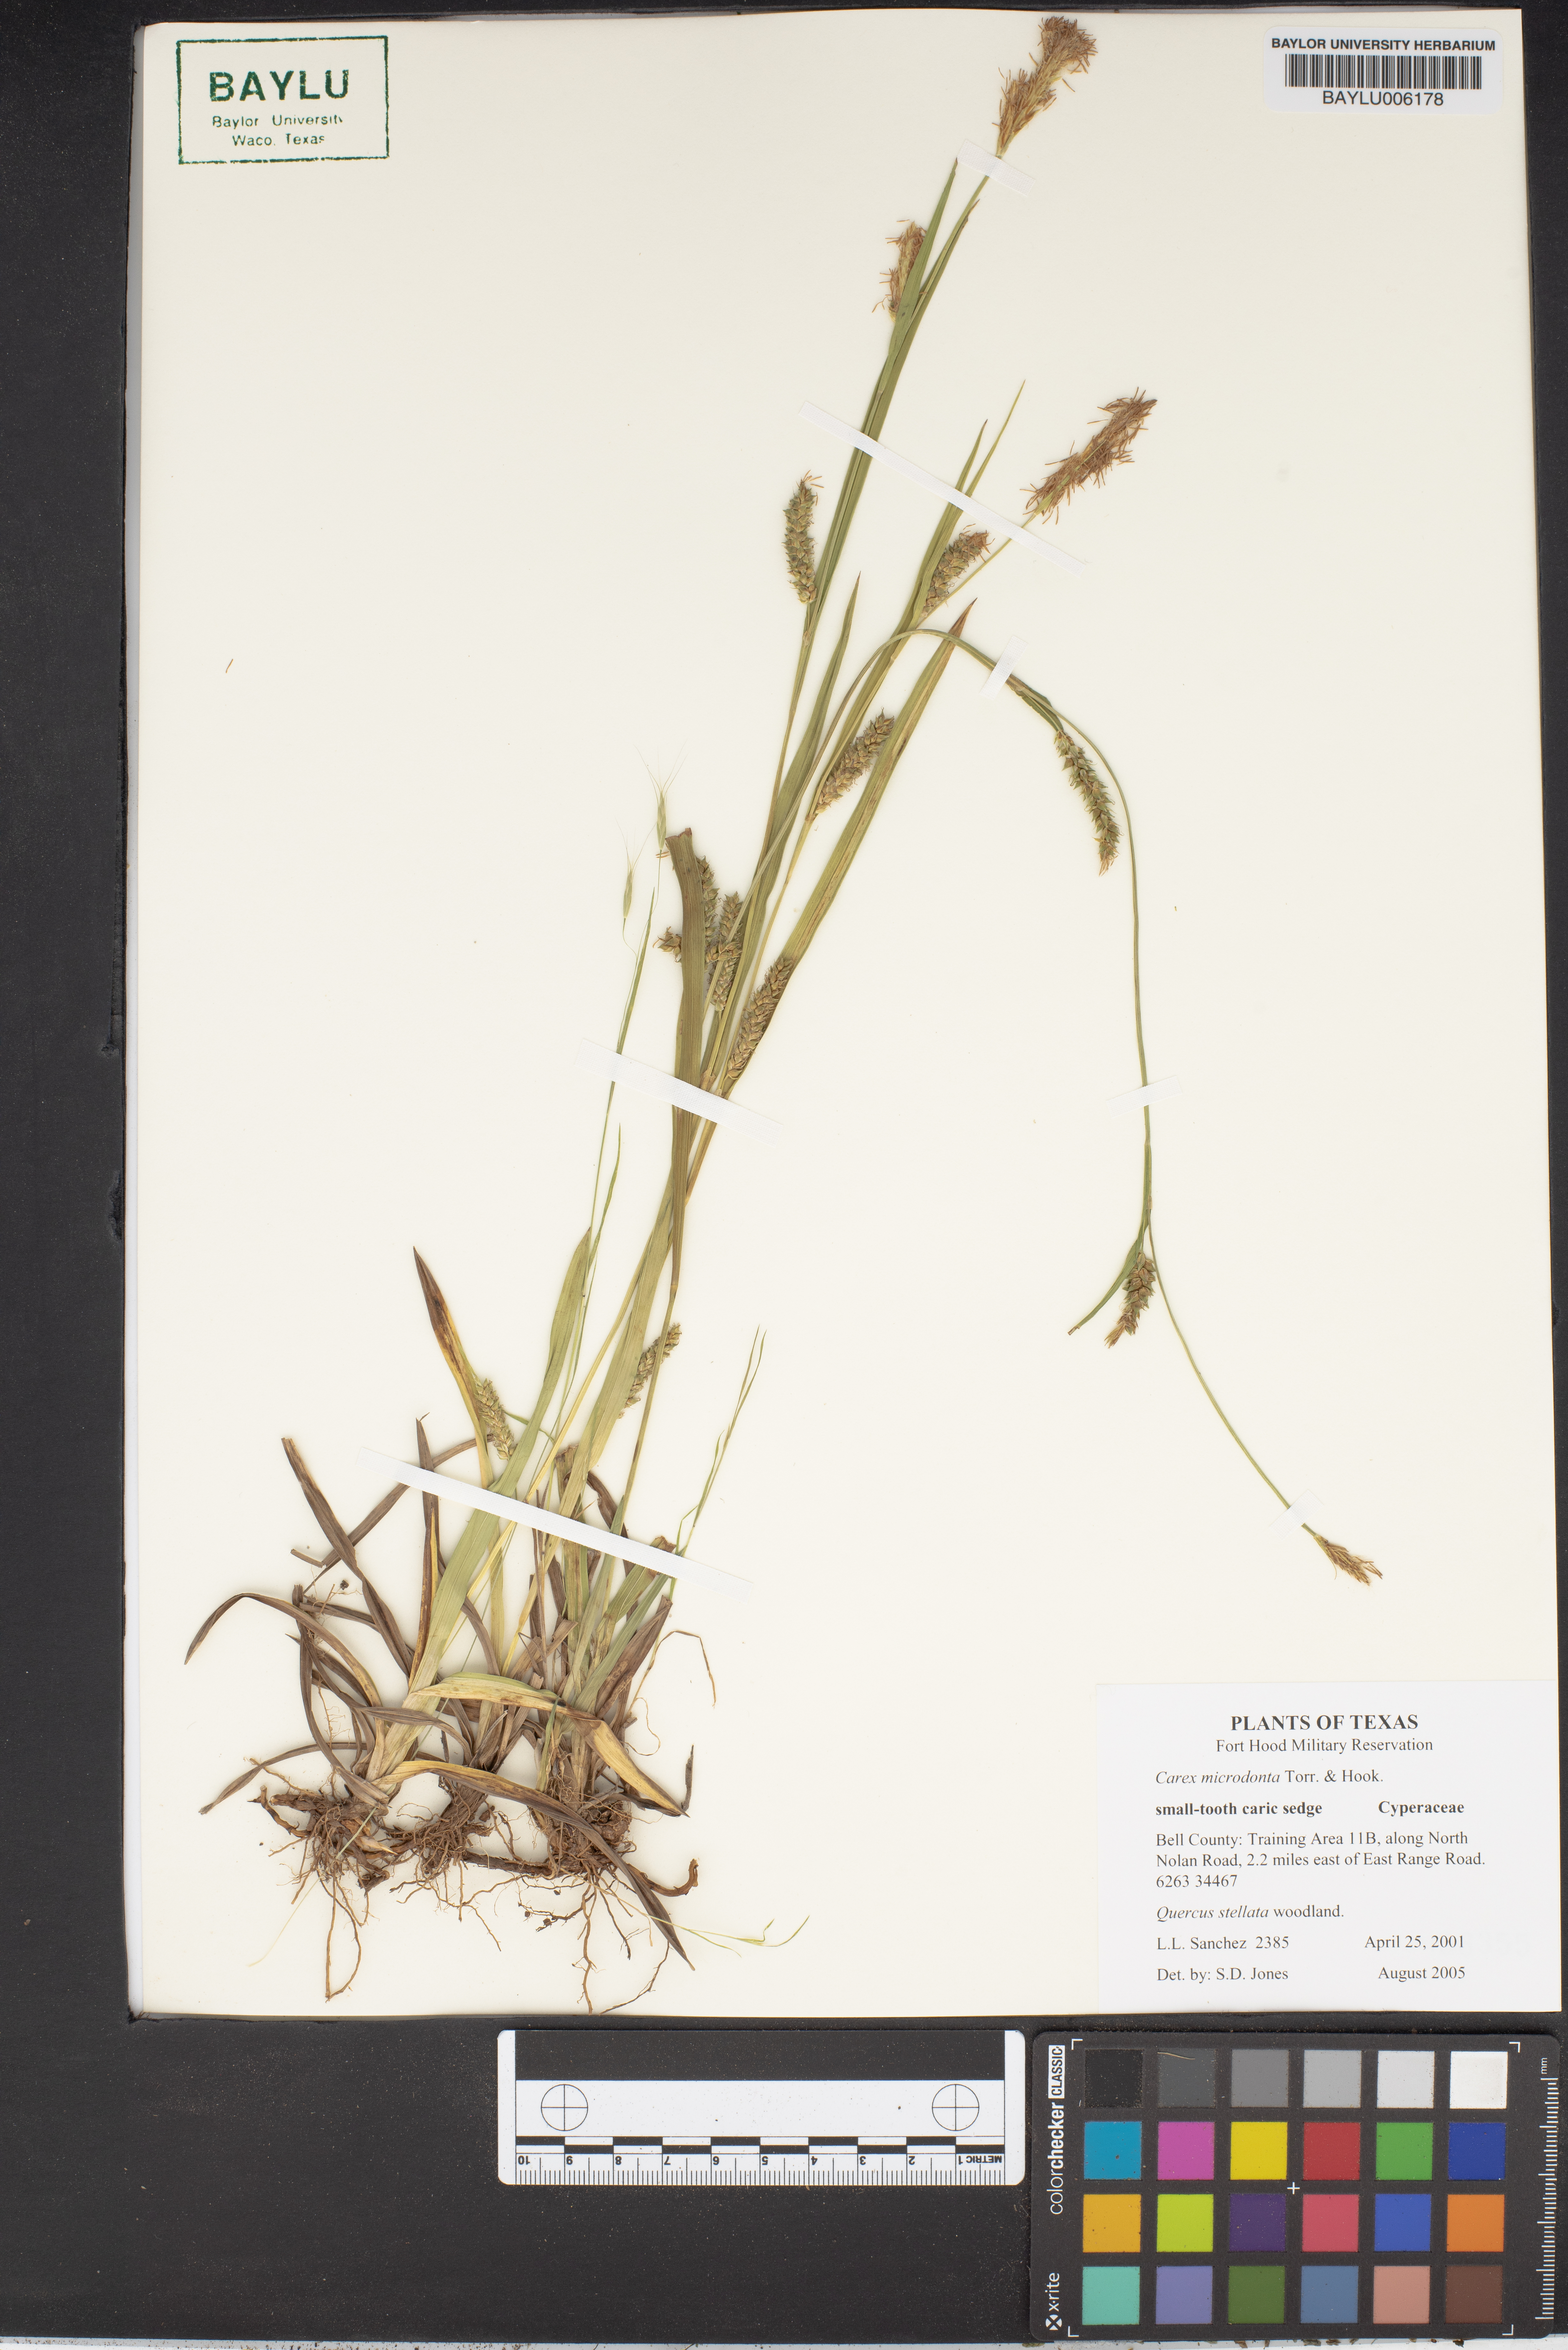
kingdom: Plantae
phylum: Tracheophyta
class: Liliopsida
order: Poales
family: Cyperaceae
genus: Carex
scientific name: Carex microdonta
